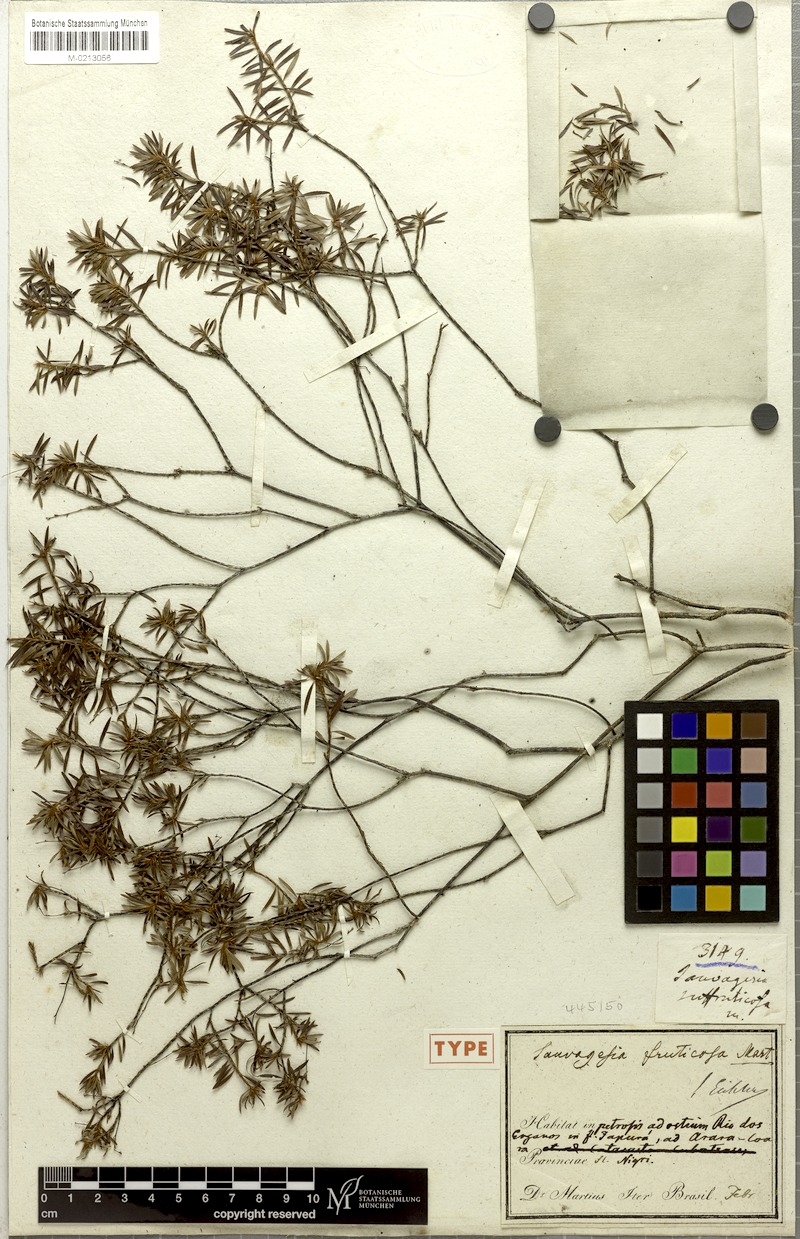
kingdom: Plantae
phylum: Tracheophyta
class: Magnoliopsida
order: Malpighiales
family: Ochnaceae
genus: Sauvagesia
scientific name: Sauvagesia fruticosa
